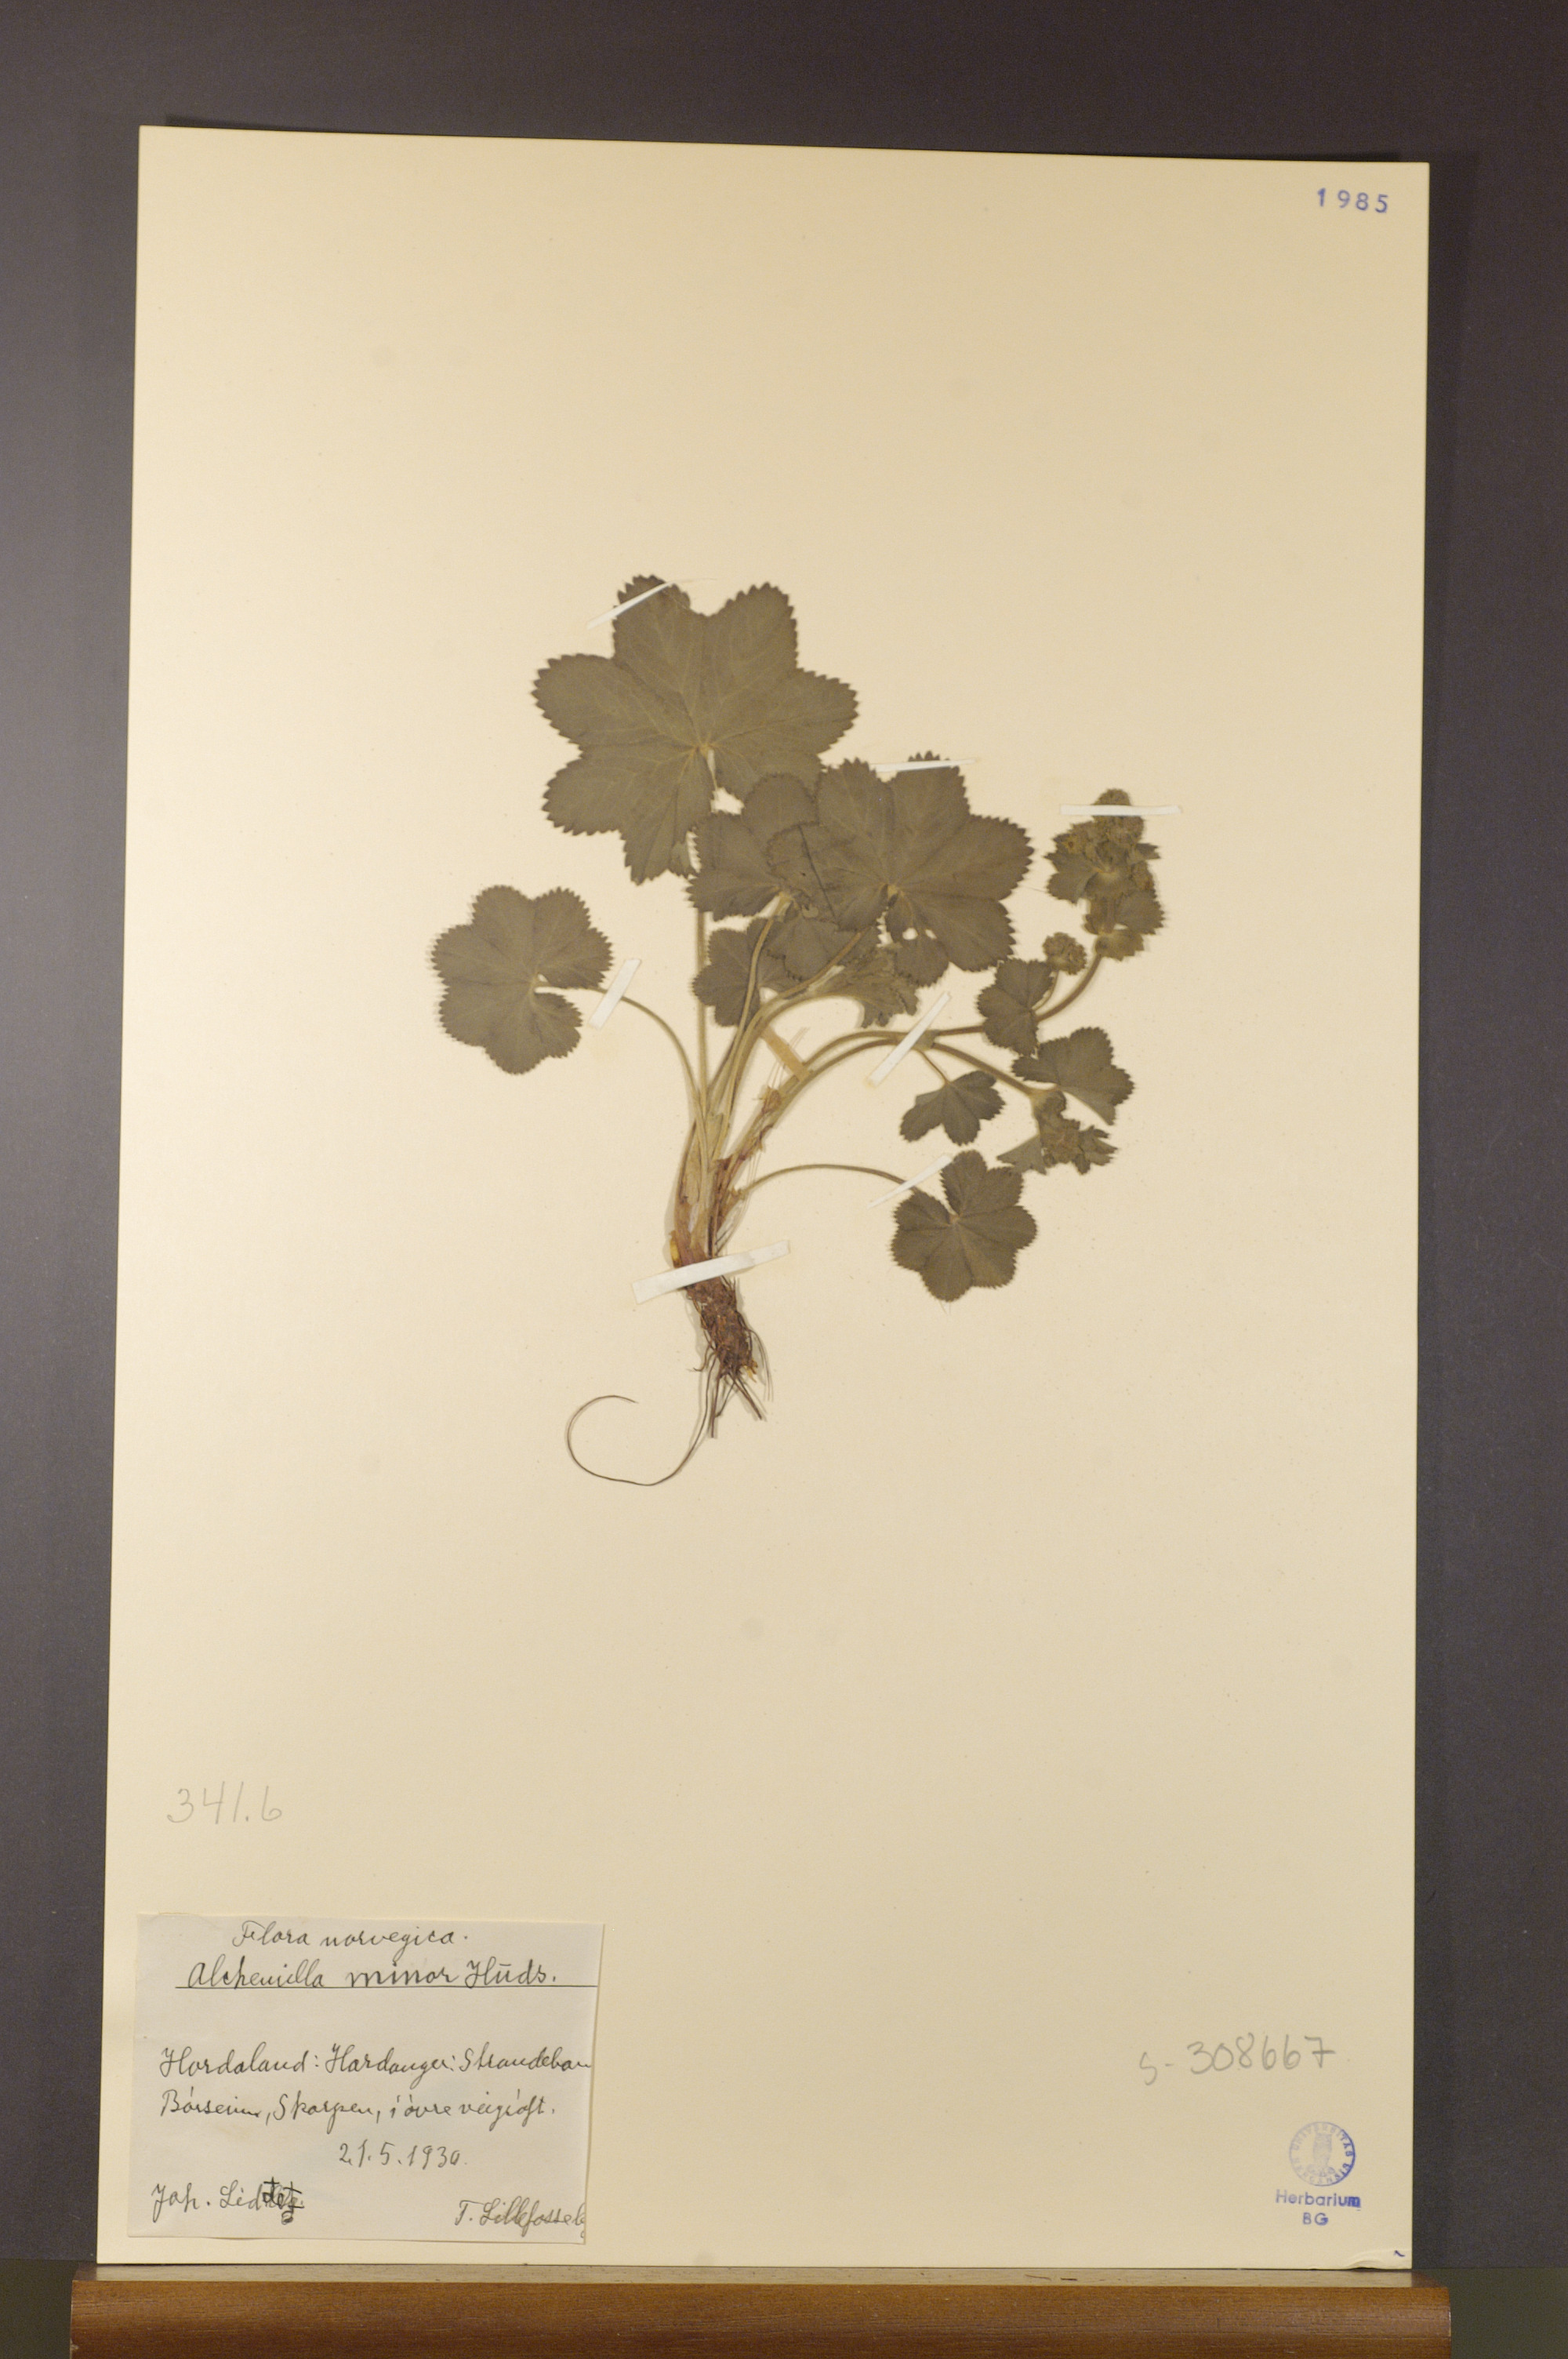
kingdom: Plantae
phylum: Tracheophyta
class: Magnoliopsida
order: Rosales
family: Rosaceae
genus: Alchemilla
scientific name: Alchemilla filicaulis
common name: Hairy lady's-mantle
